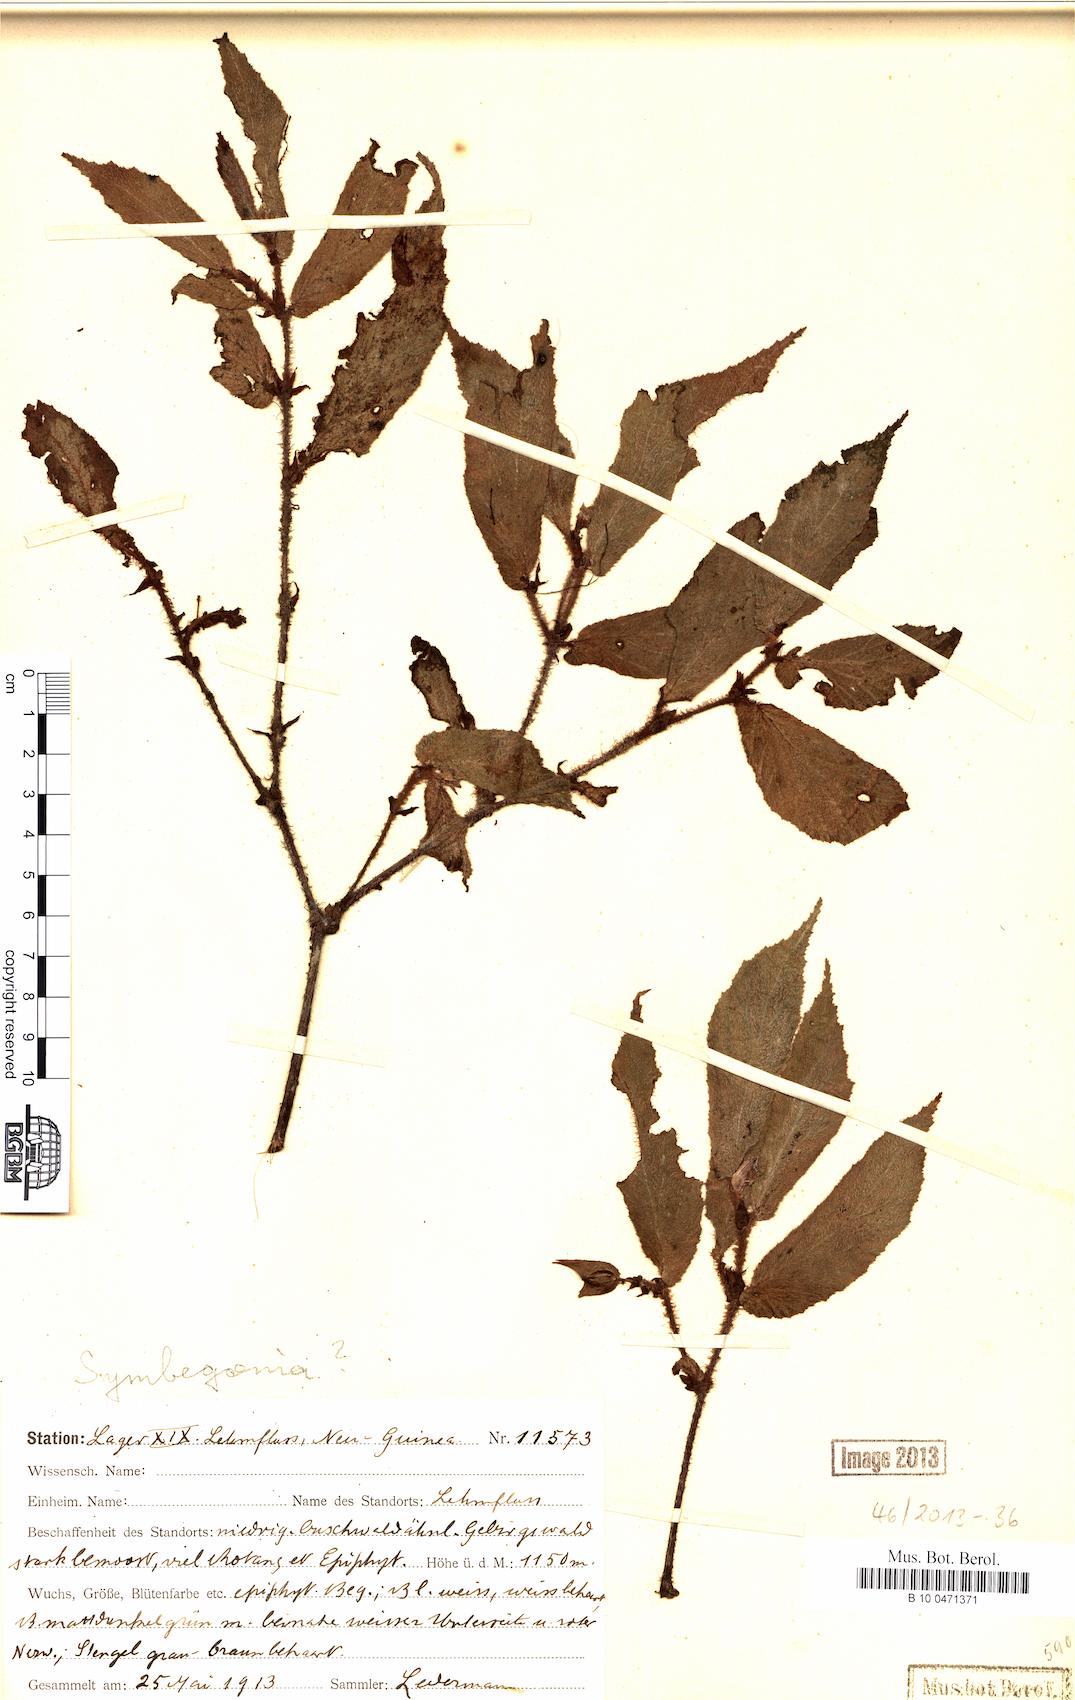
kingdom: Plantae
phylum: Tracheophyta
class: Magnoliopsida
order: Cucurbitales
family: Begoniaceae
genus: Begonia
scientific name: Begonia
